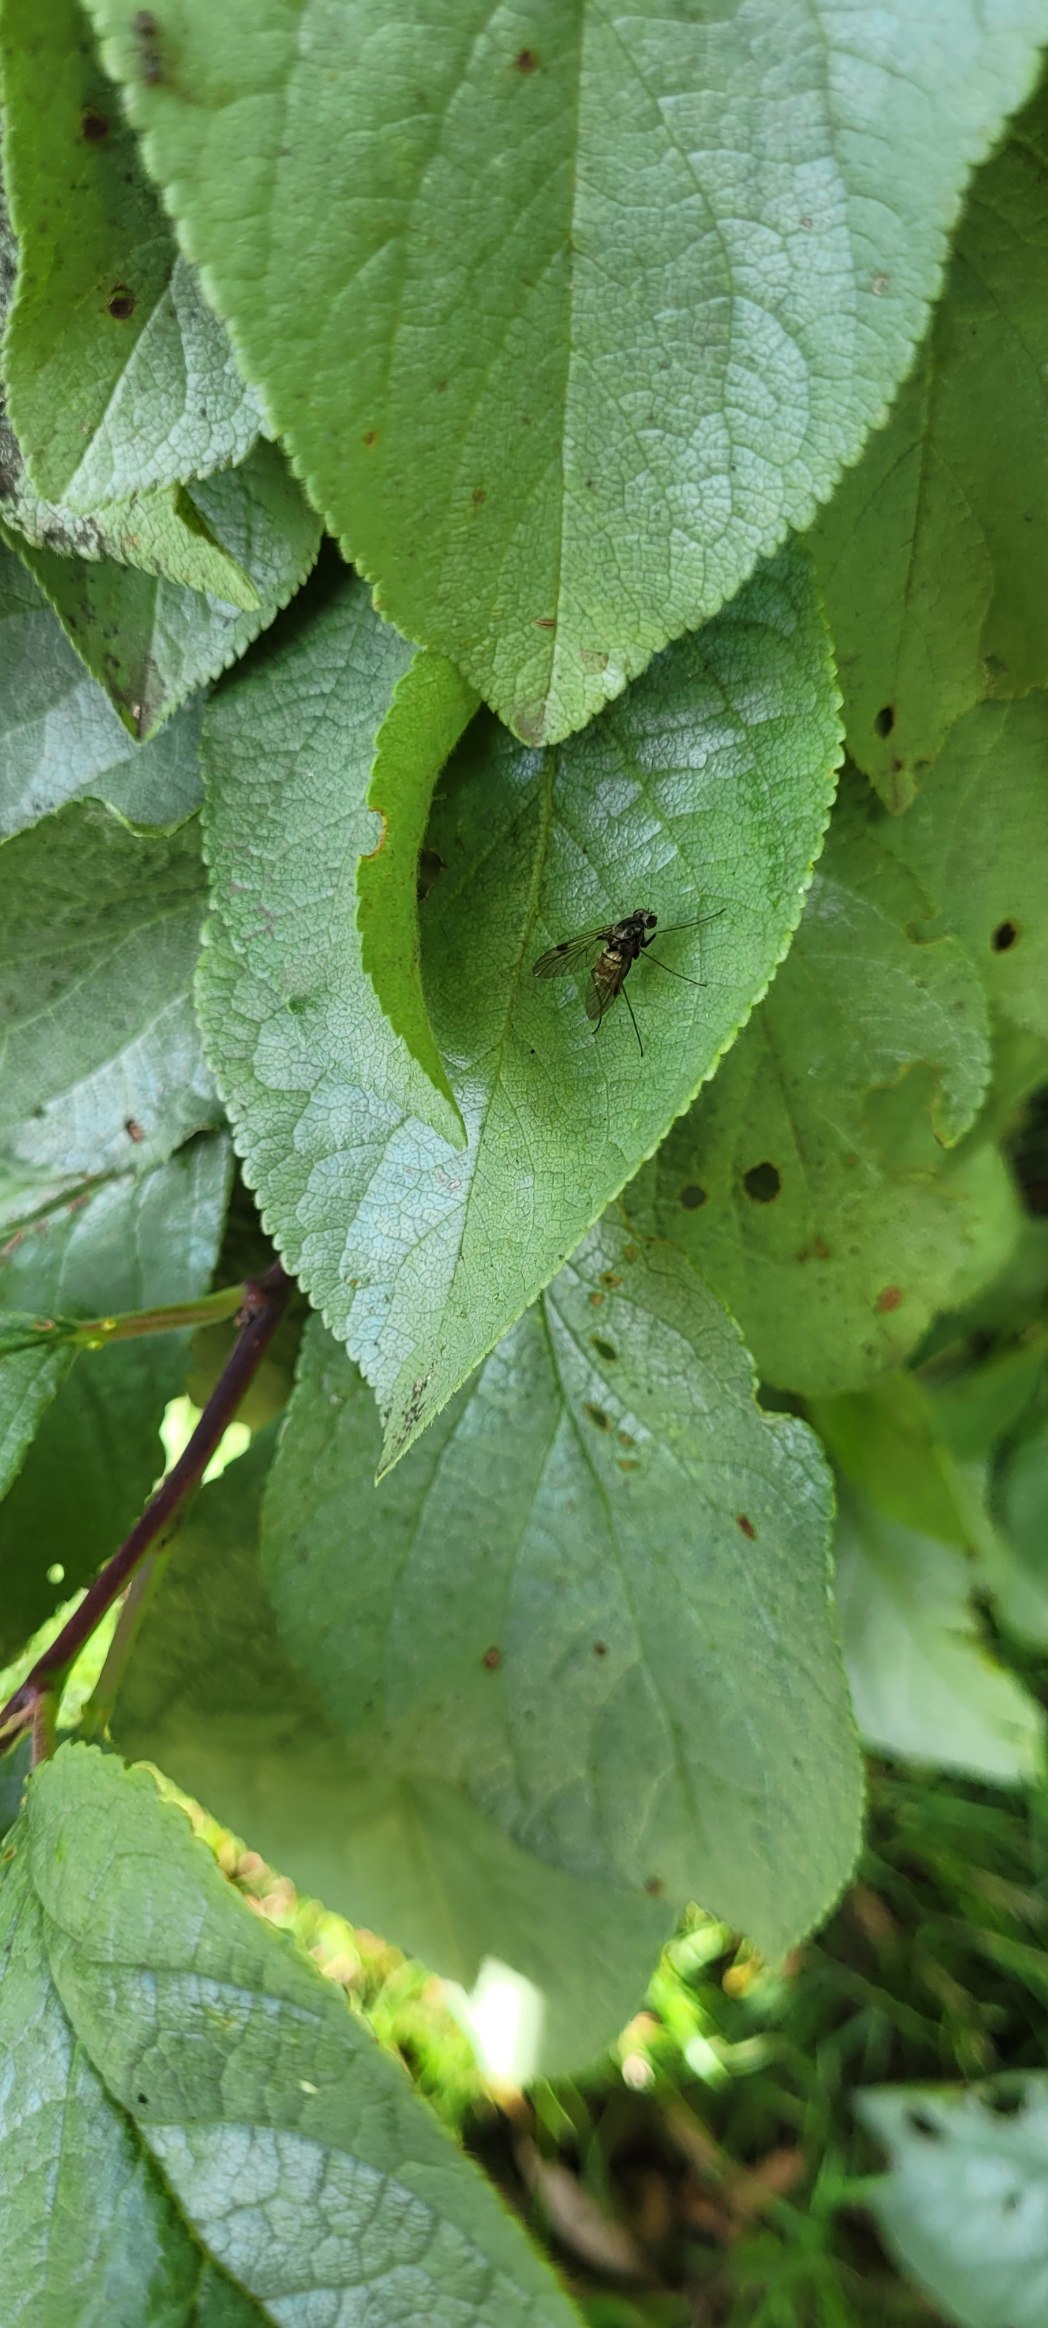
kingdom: Animalia
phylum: Arthropoda
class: Insecta
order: Diptera
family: Rhagionidae
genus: Chrysopilus
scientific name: Chrysopilus cristatus
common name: Gulhåret sneppeflue
